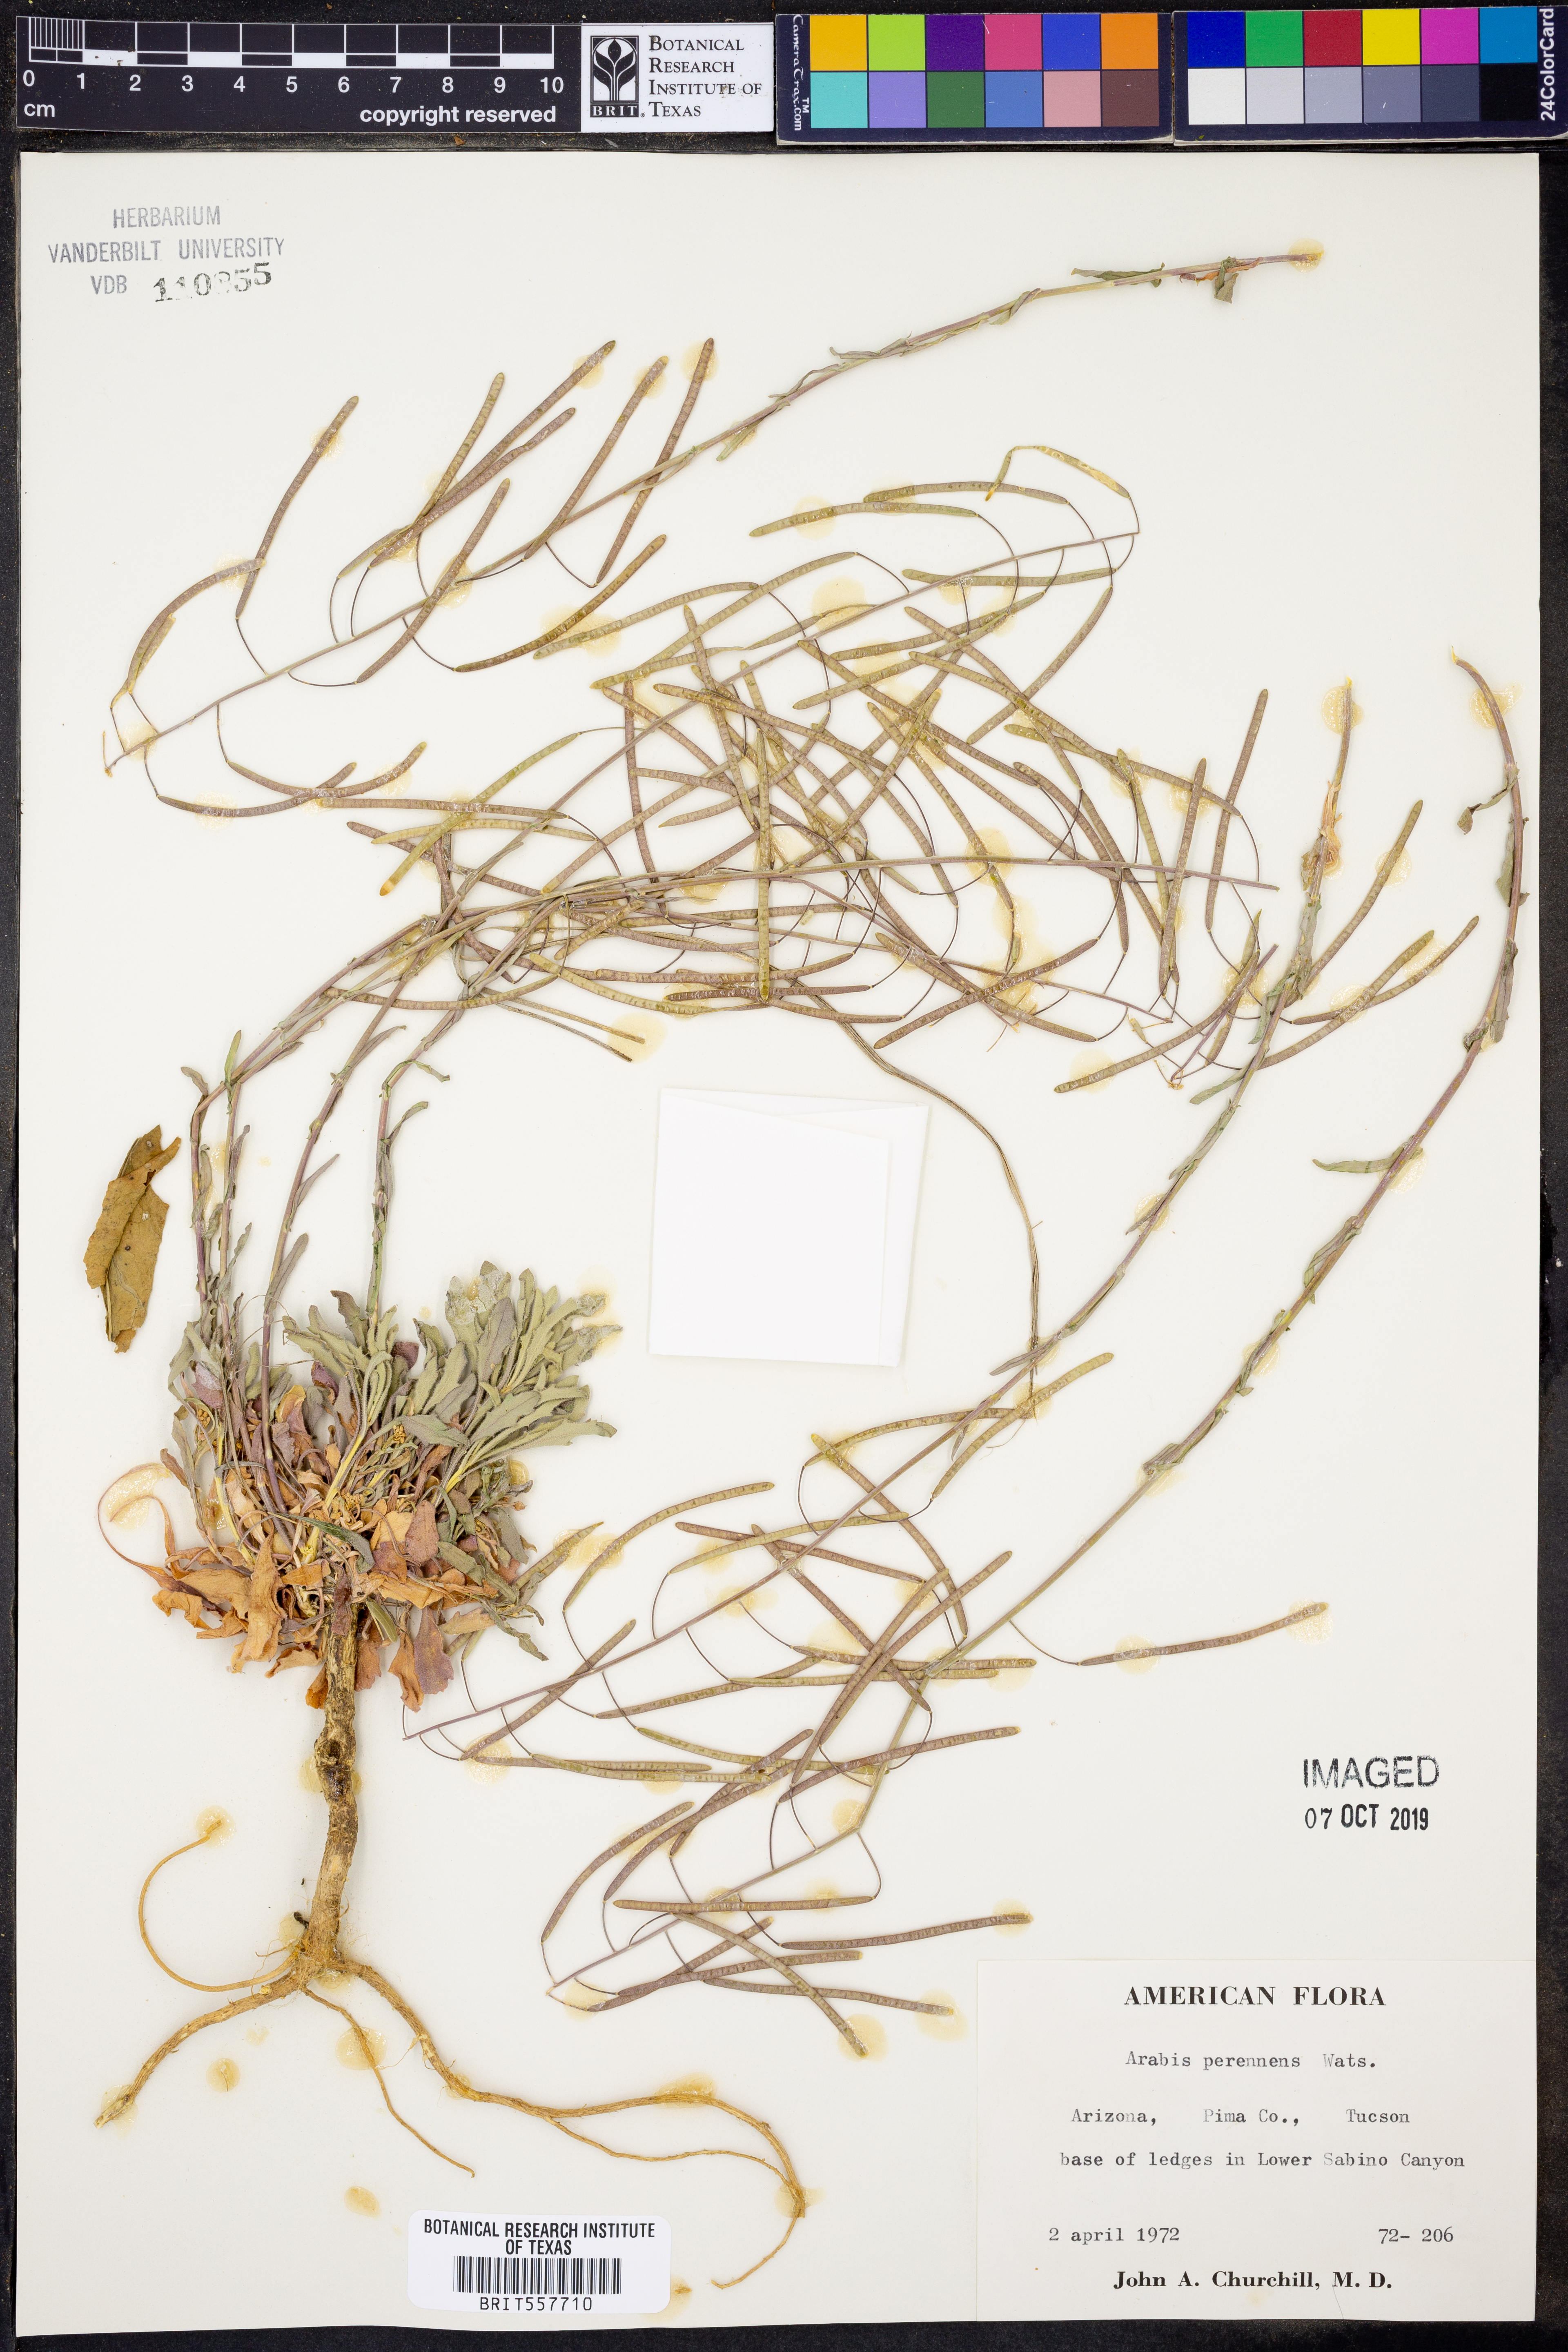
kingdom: Plantae
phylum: Tracheophyta
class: Magnoliopsida
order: Brassicales
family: Brassicaceae
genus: Boechera
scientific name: Boechera perennans
